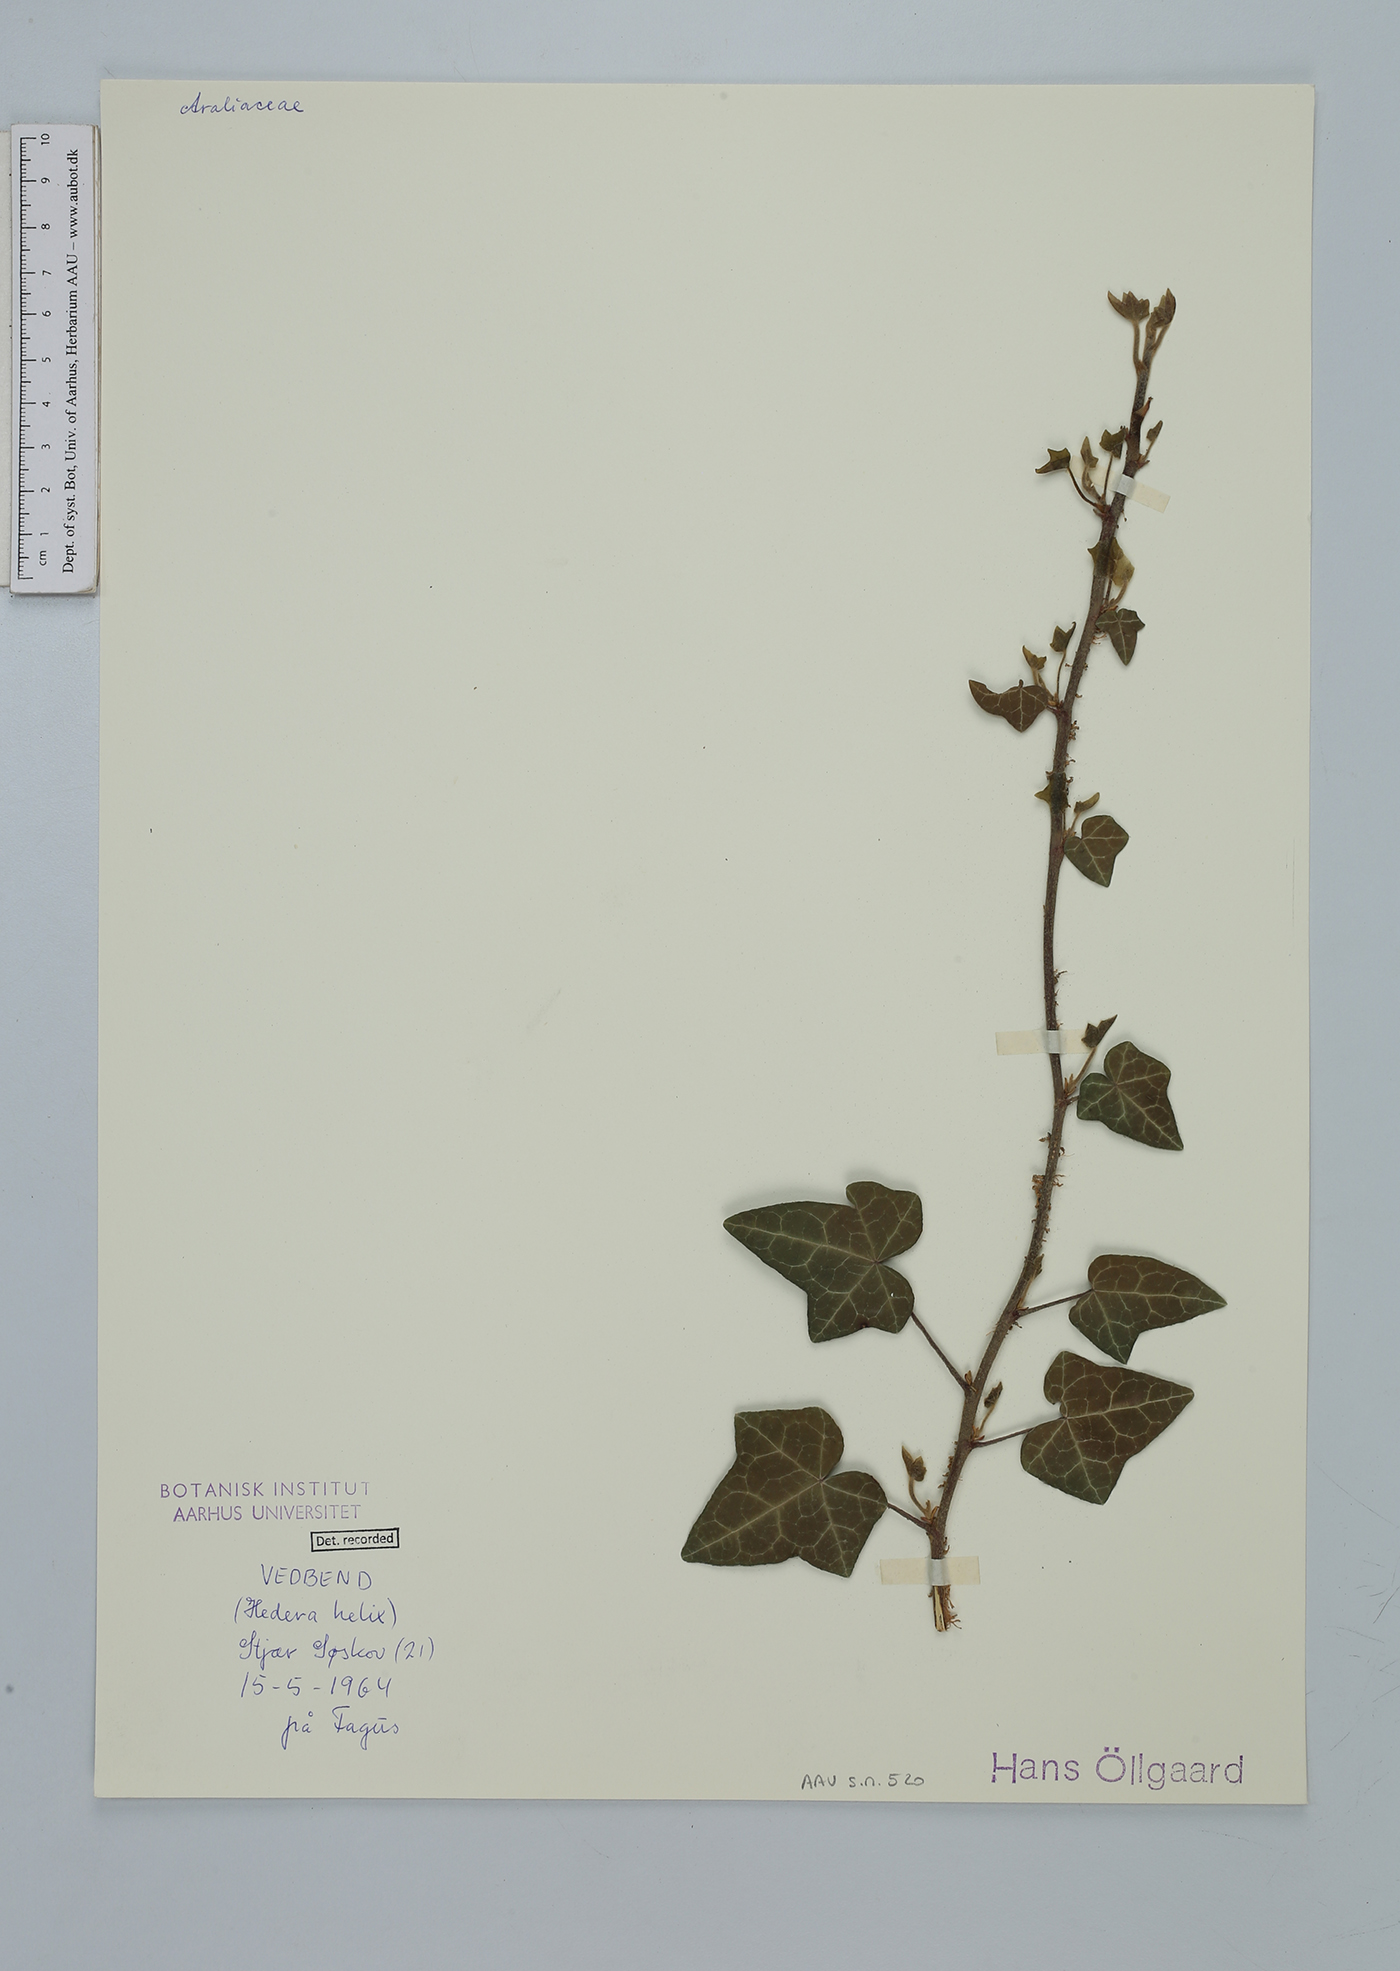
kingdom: Plantae
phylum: Tracheophyta
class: Magnoliopsida
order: Apiales
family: Araliaceae
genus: Hedera
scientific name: Hedera helix
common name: Ivy
